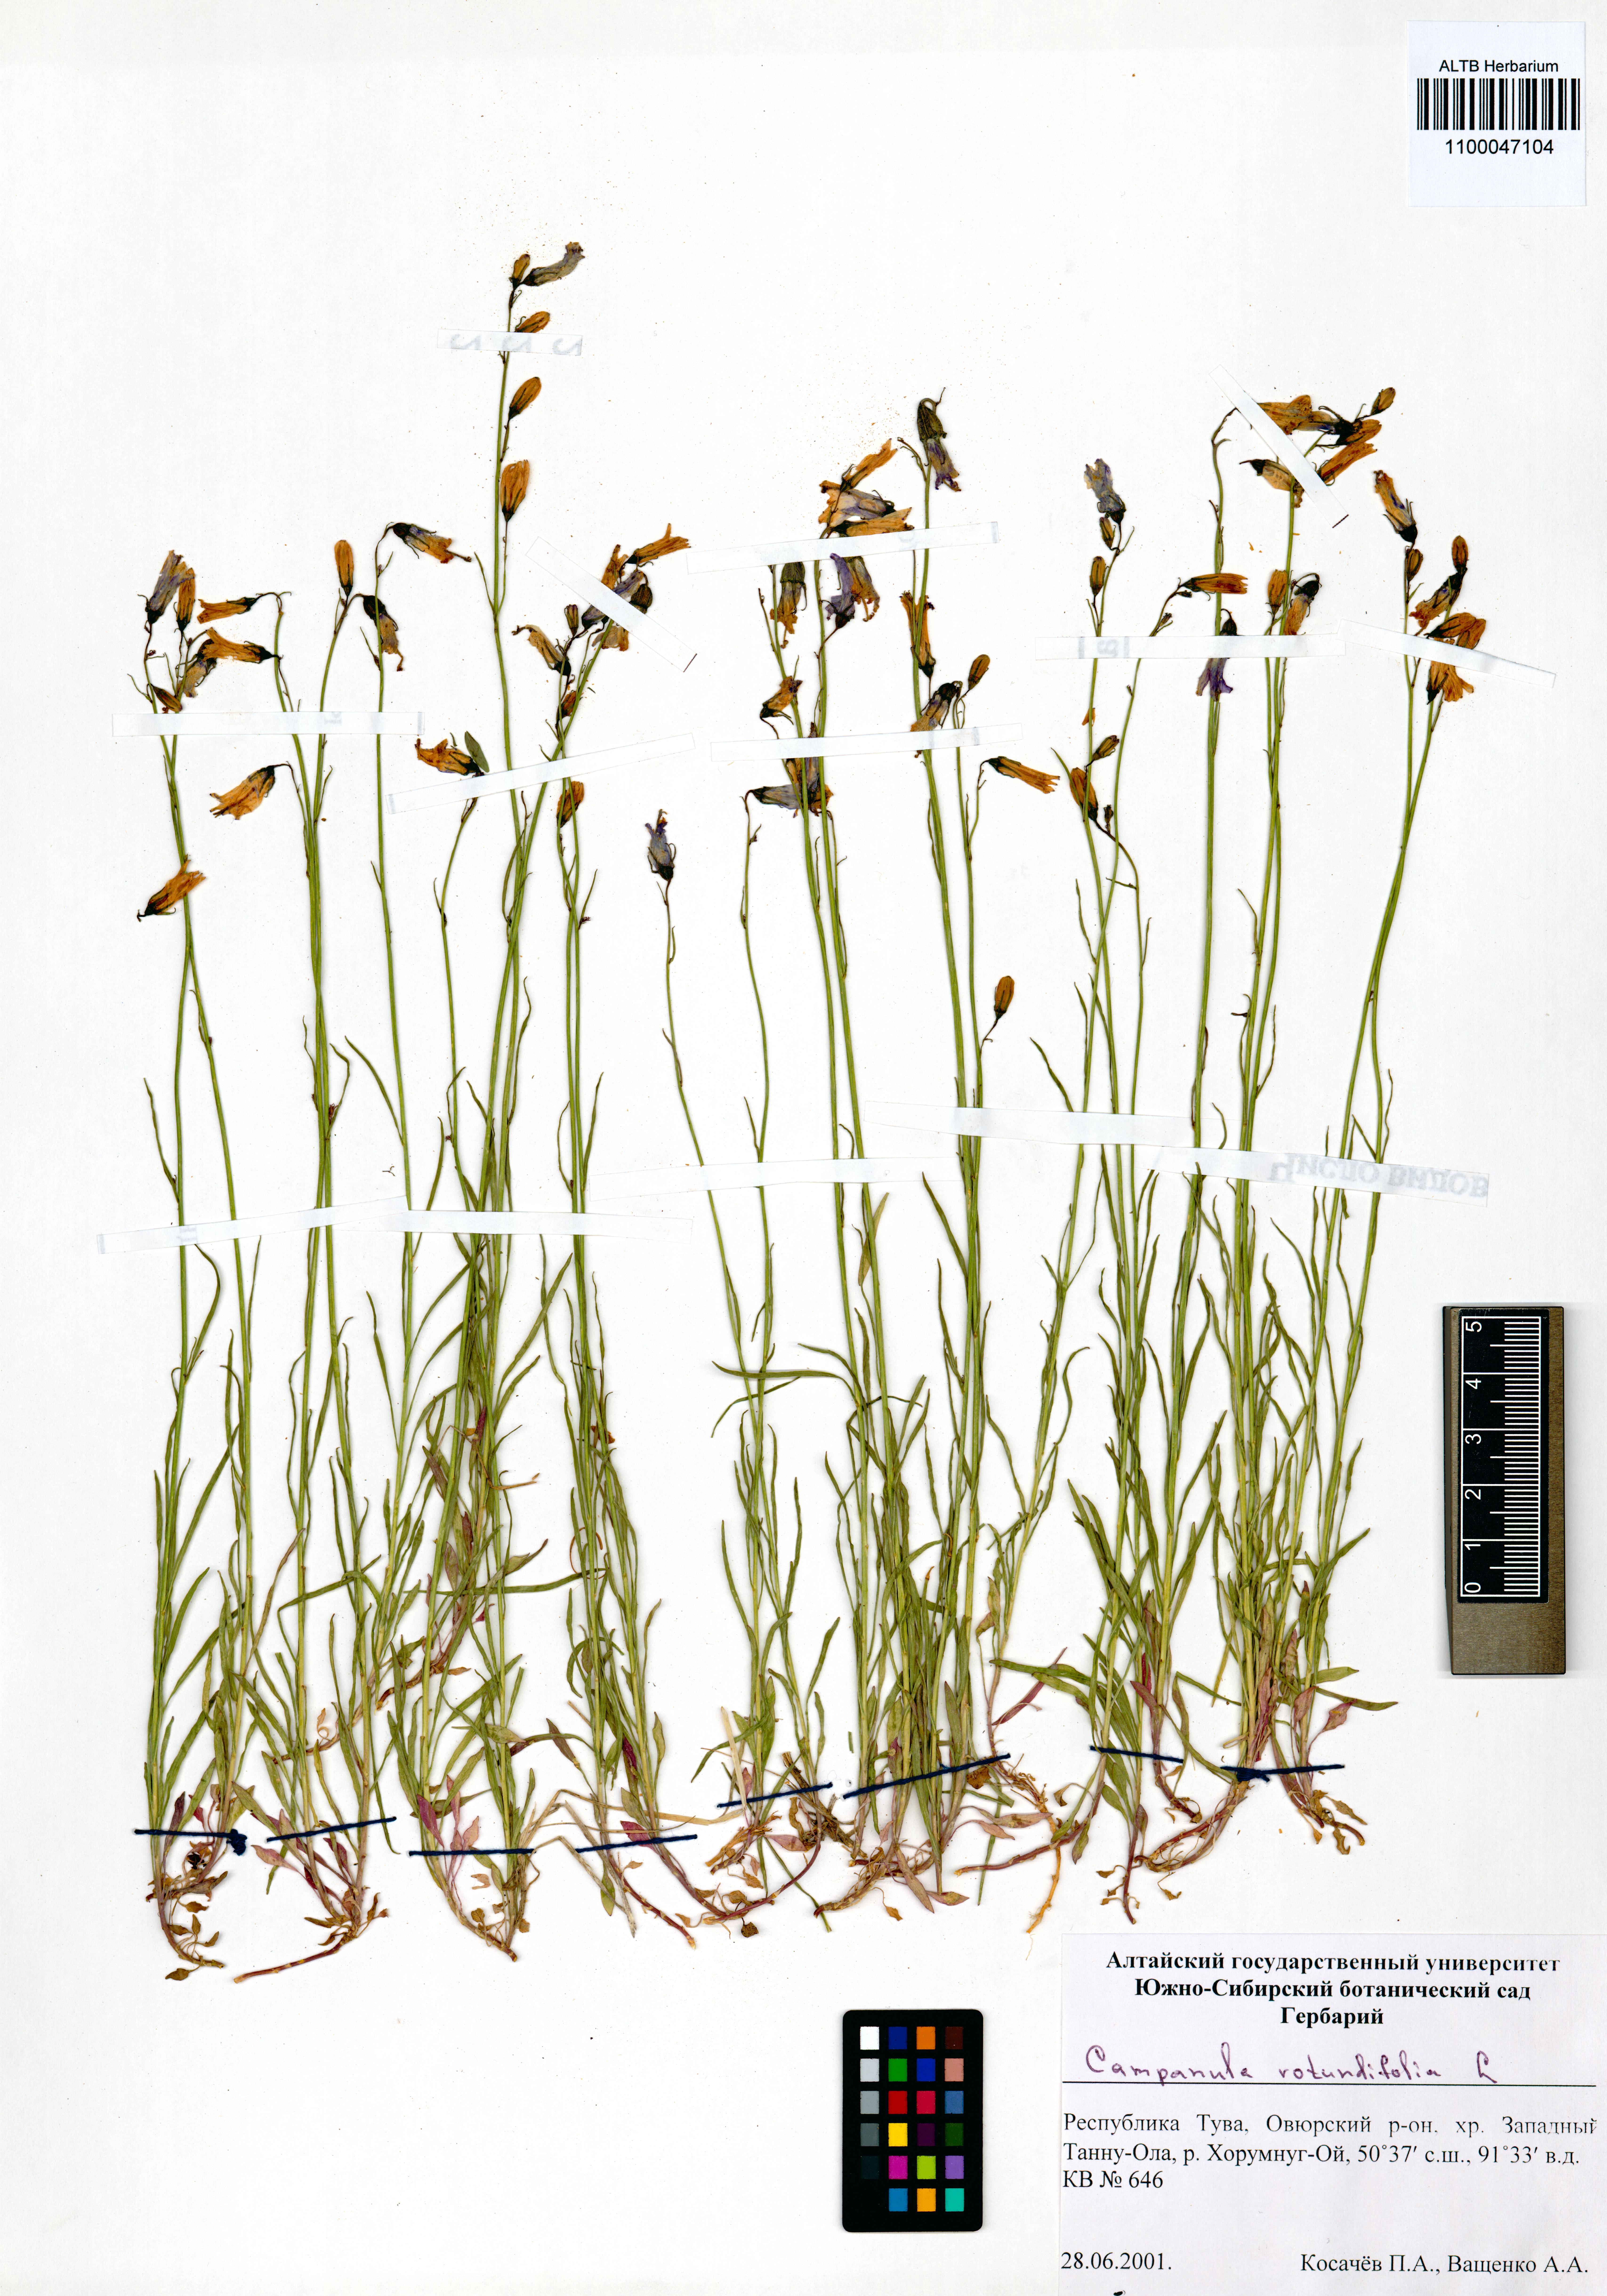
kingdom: Plantae
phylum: Tracheophyta
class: Magnoliopsida
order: Asterales
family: Campanulaceae
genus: Campanula
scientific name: Campanula rotundifolia
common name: Harebell
